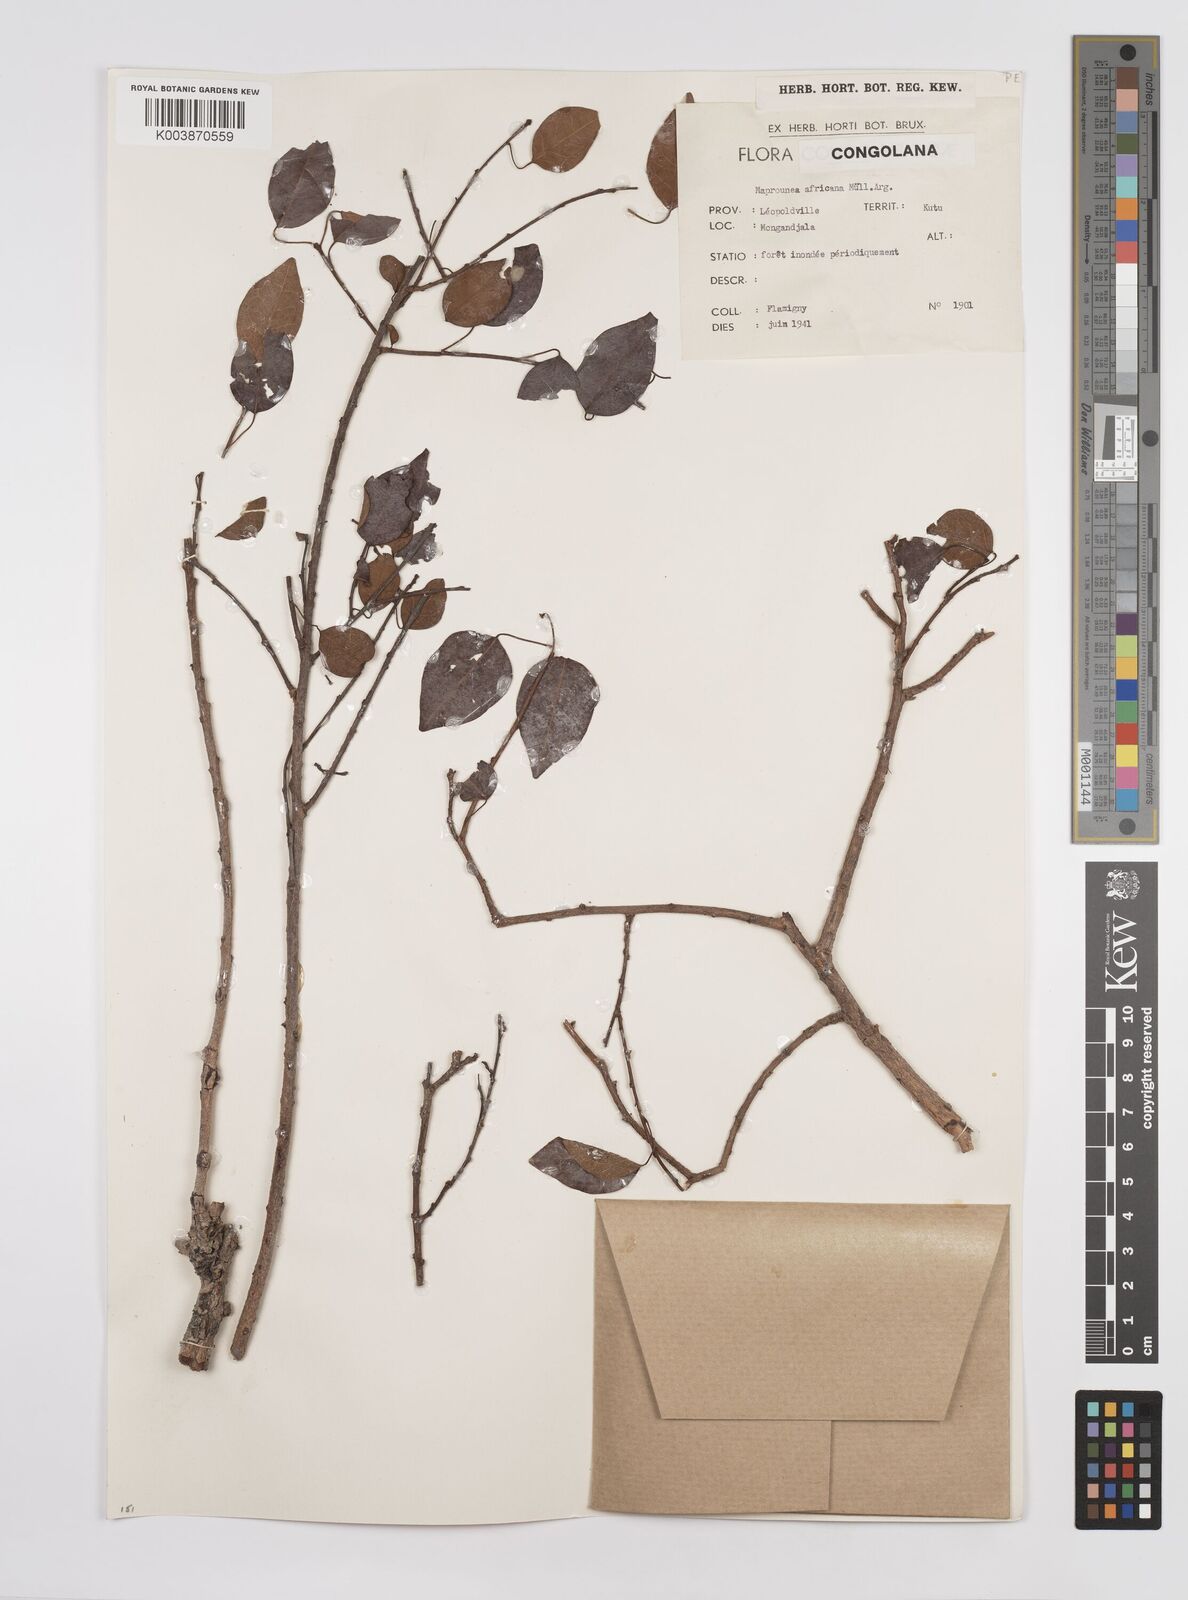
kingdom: Plantae
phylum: Tracheophyta
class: Magnoliopsida
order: Malpighiales
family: Euphorbiaceae
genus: Maprounea
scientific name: Maprounea africana
